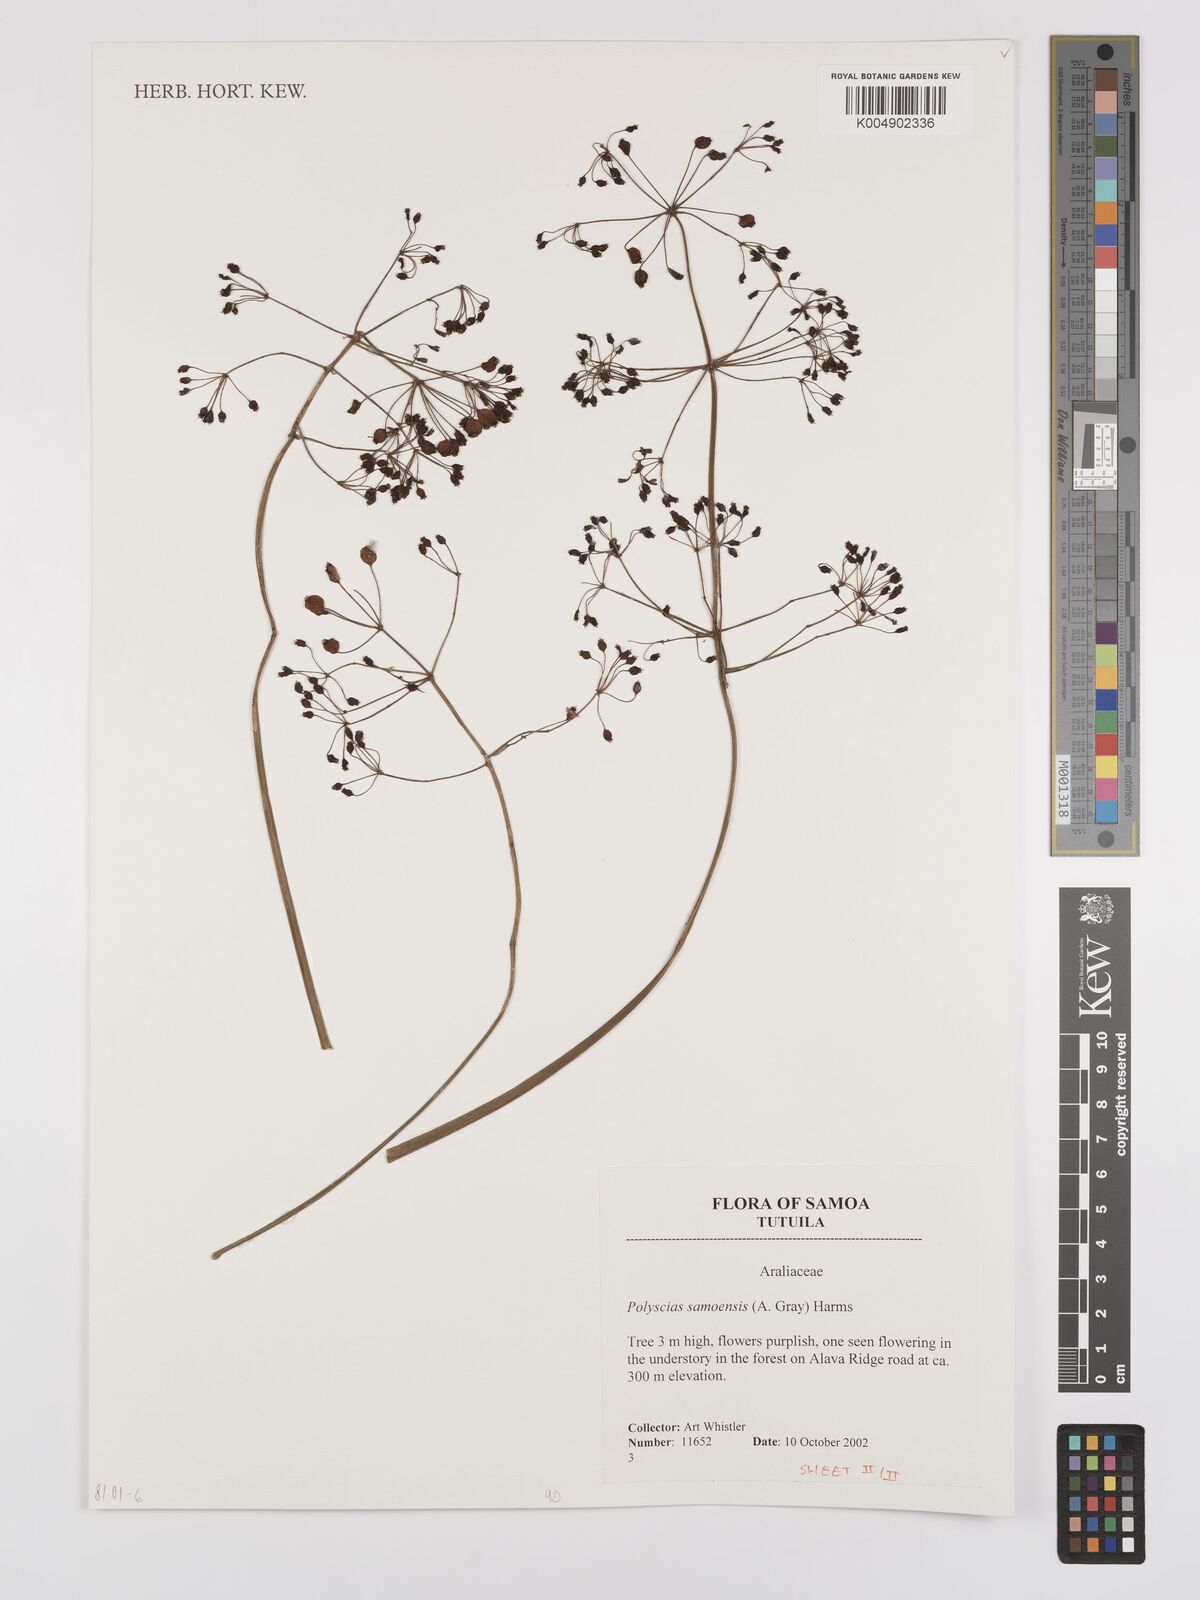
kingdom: Plantae
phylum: Tracheophyta
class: Magnoliopsida
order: Apiales
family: Araliaceae
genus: Polyscias
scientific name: Polyscias samoensis
